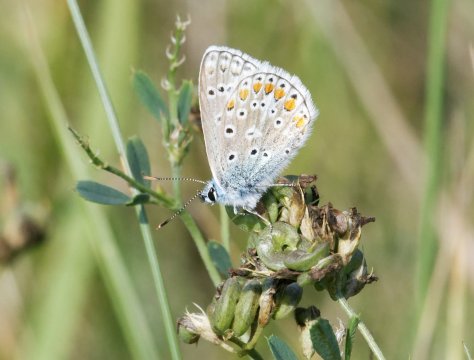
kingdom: Animalia
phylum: Arthropoda
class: Insecta
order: Lepidoptera
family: Lycaenidae
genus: Polyommatus
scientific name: Polyommatus icarus
